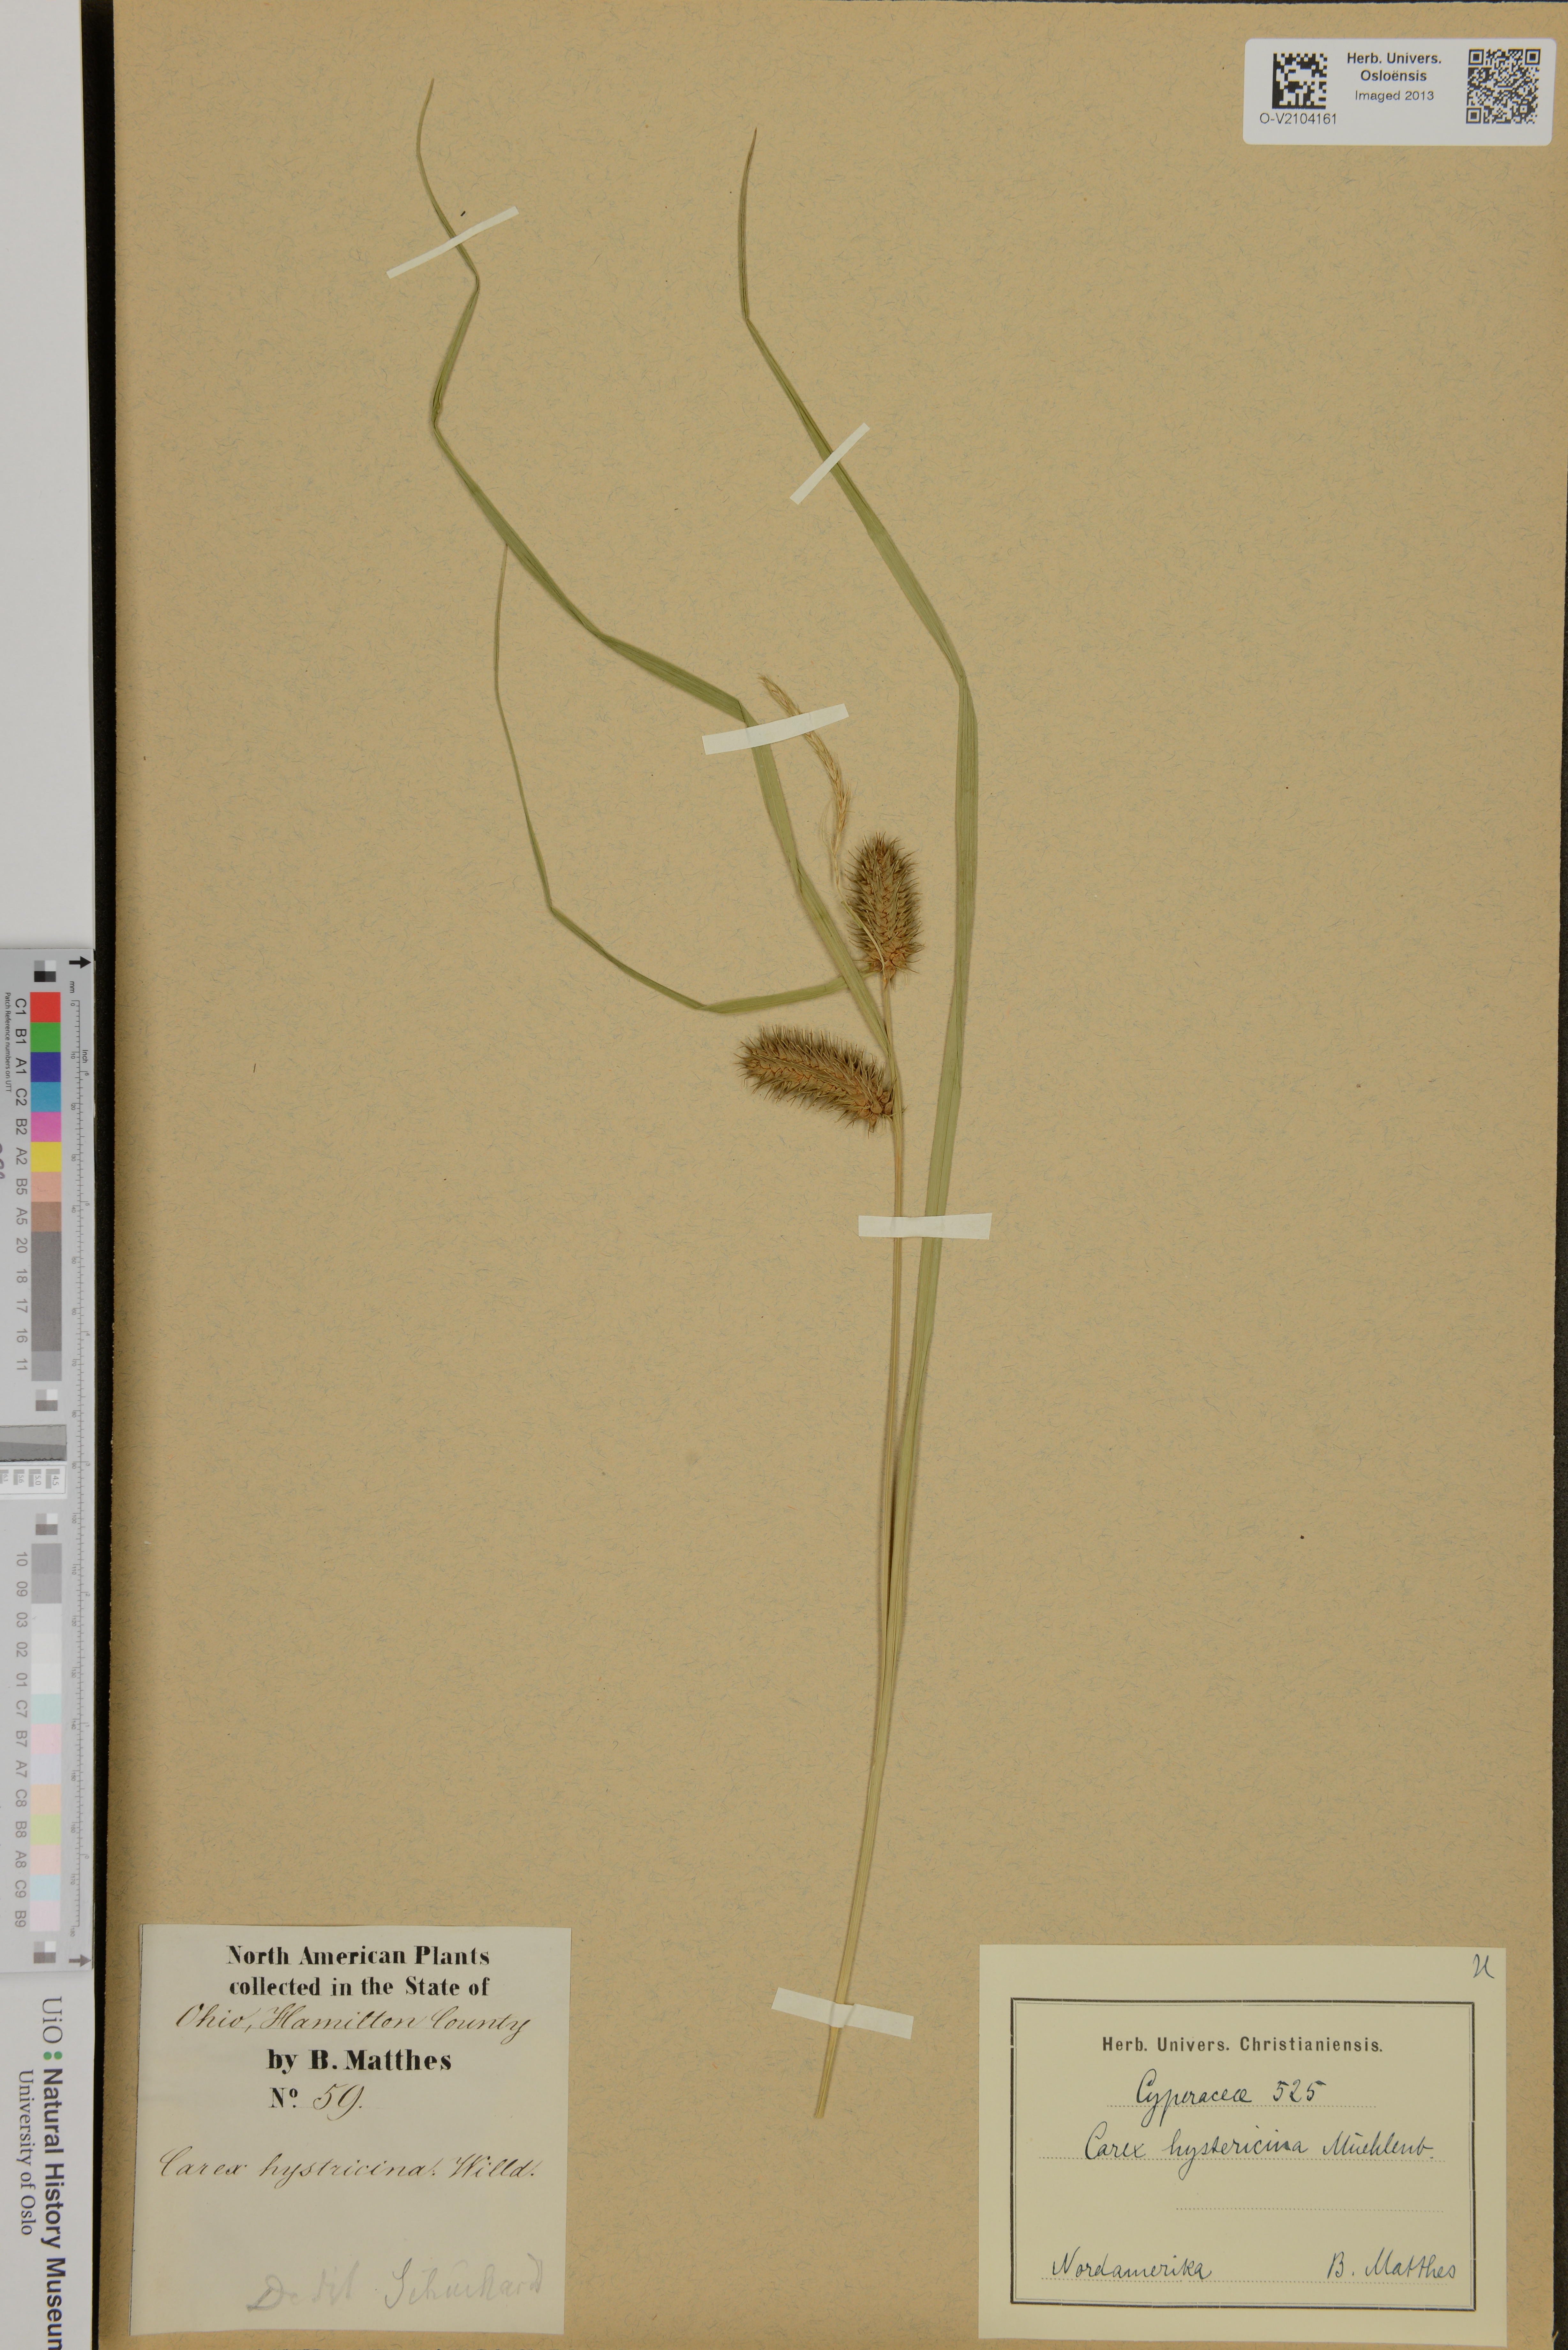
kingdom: Plantae
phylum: Tracheophyta
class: Liliopsida
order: Poales
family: Cyperaceae
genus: Carex
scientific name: Carex hystericina
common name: Bottlebrush sedge
